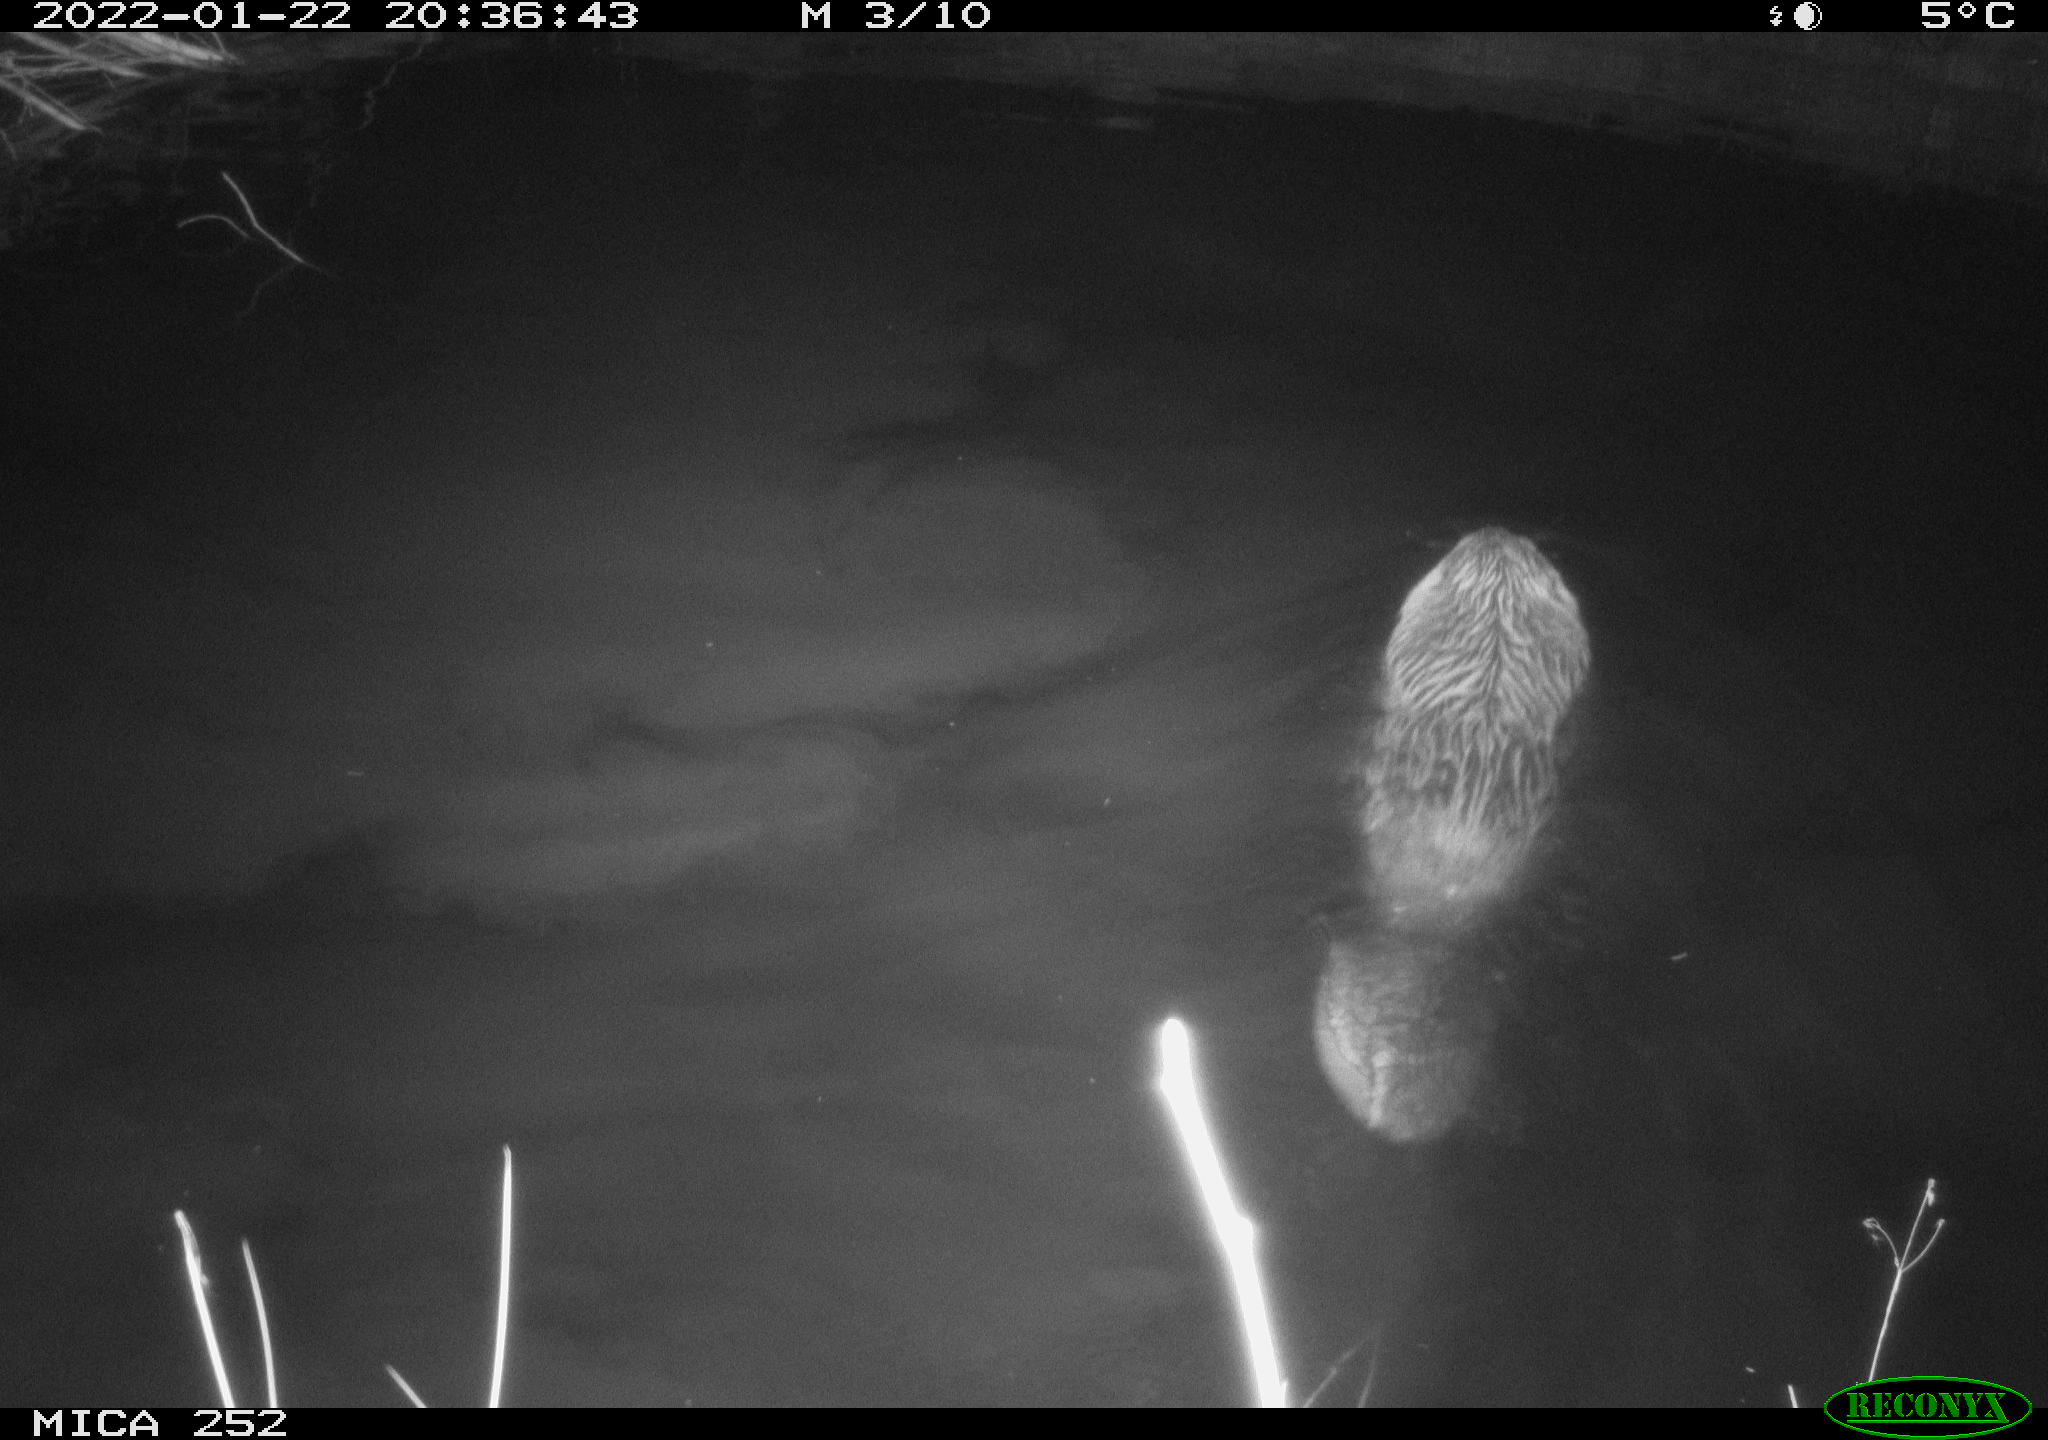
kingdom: Animalia
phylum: Chordata
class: Mammalia
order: Rodentia
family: Castoridae
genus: Castor
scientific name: Castor fiber
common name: Eurasian beaver
